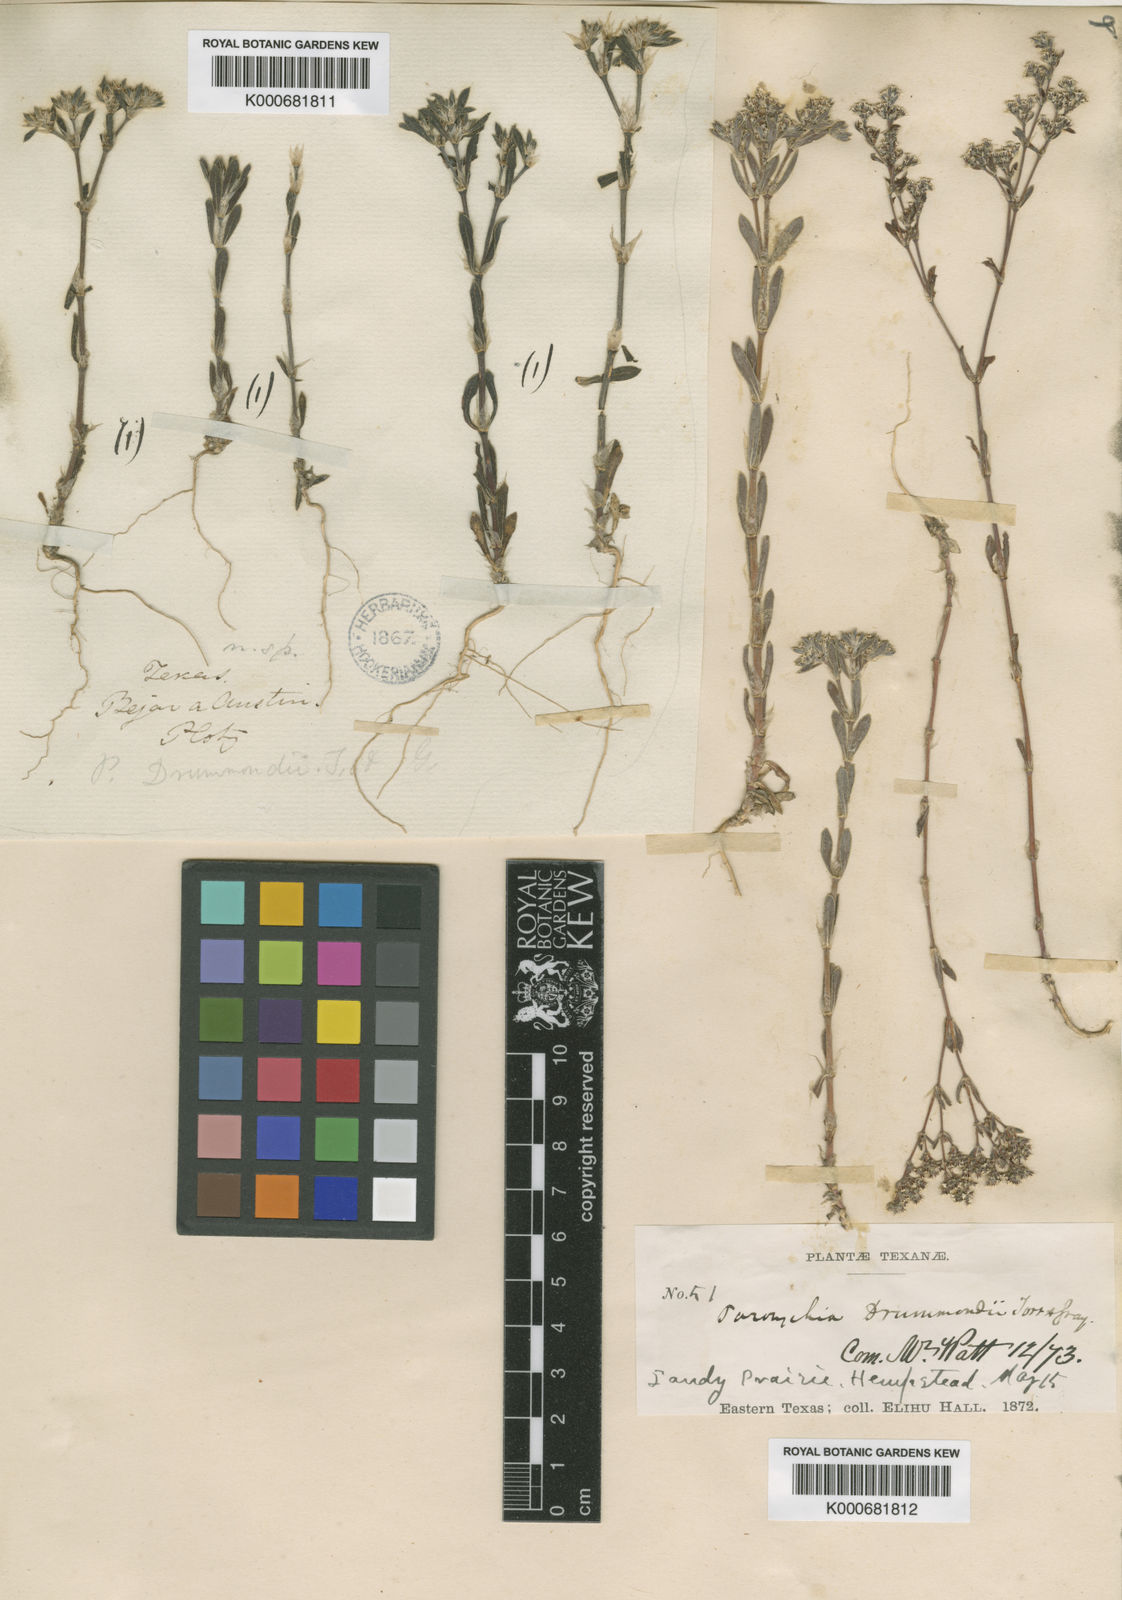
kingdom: Plantae
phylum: Tracheophyta
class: Magnoliopsida
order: Caryophyllales
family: Caryophyllaceae
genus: Paronychia
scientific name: Paronychia drummondii
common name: Drummond's nailwort
